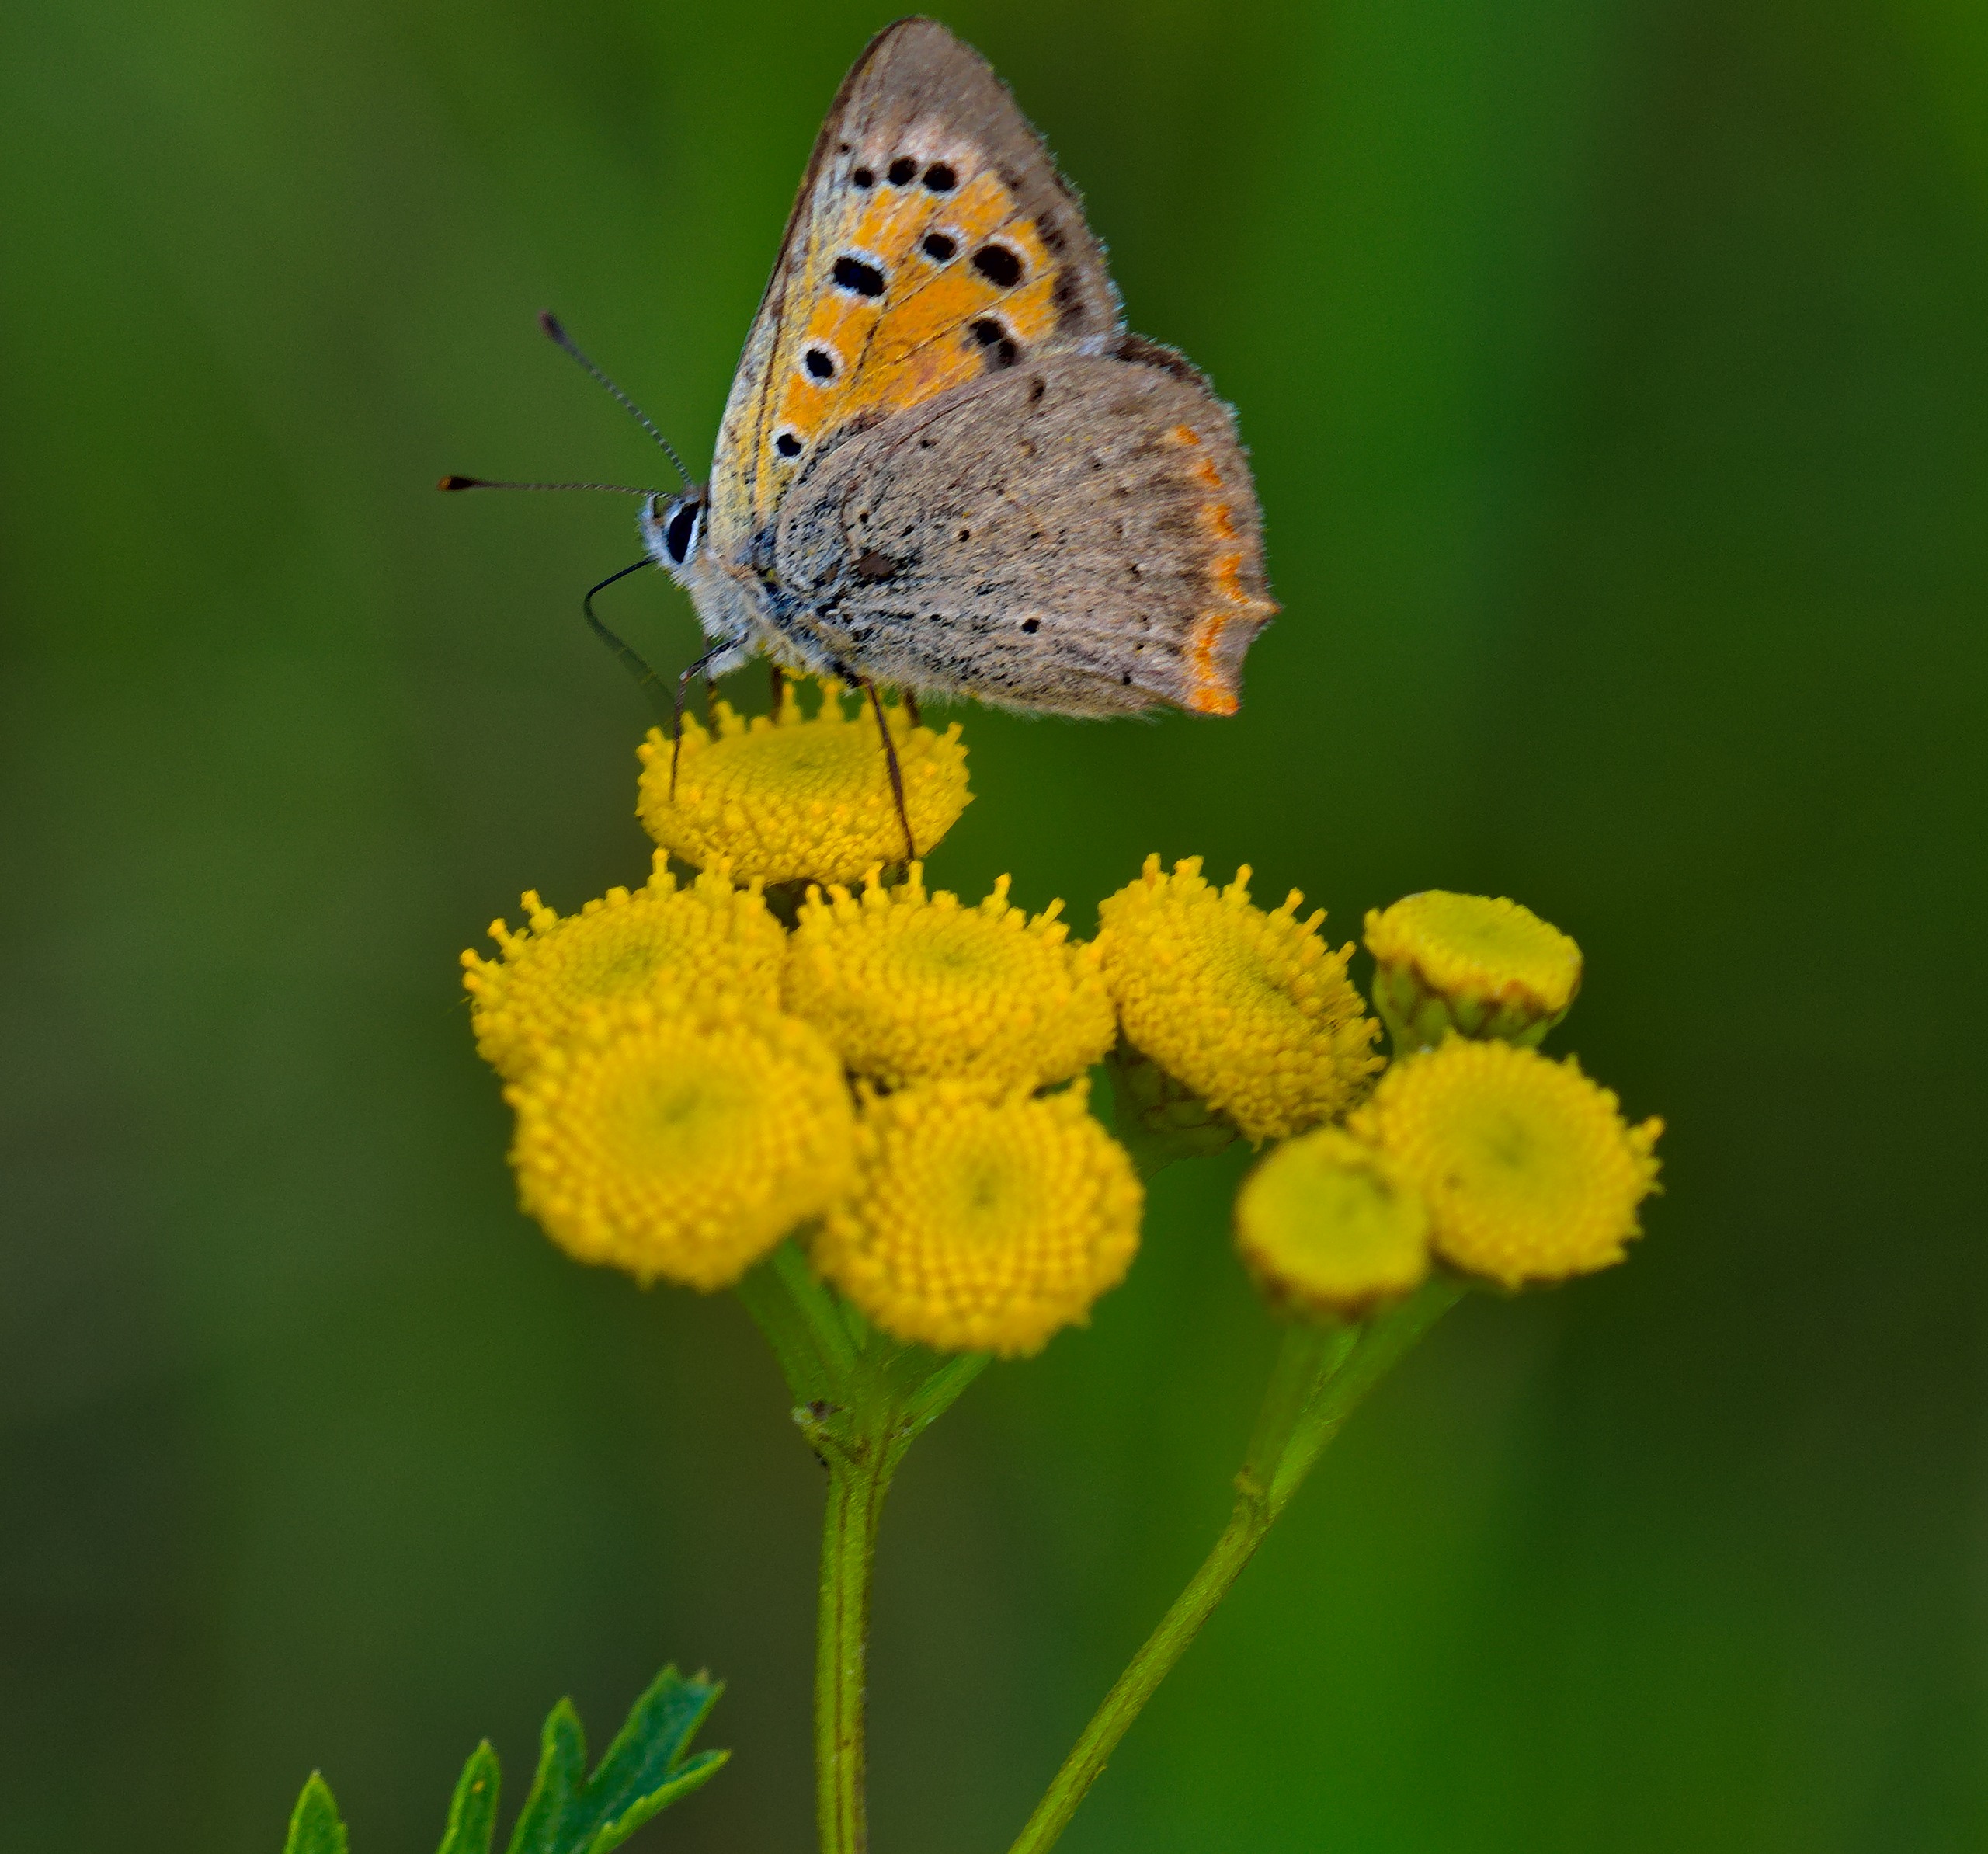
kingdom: Animalia
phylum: Arthropoda
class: Insecta
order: Lepidoptera
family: Lycaenidae
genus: Lycaena
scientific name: Lycaena phlaeas
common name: Lille ildfugl
